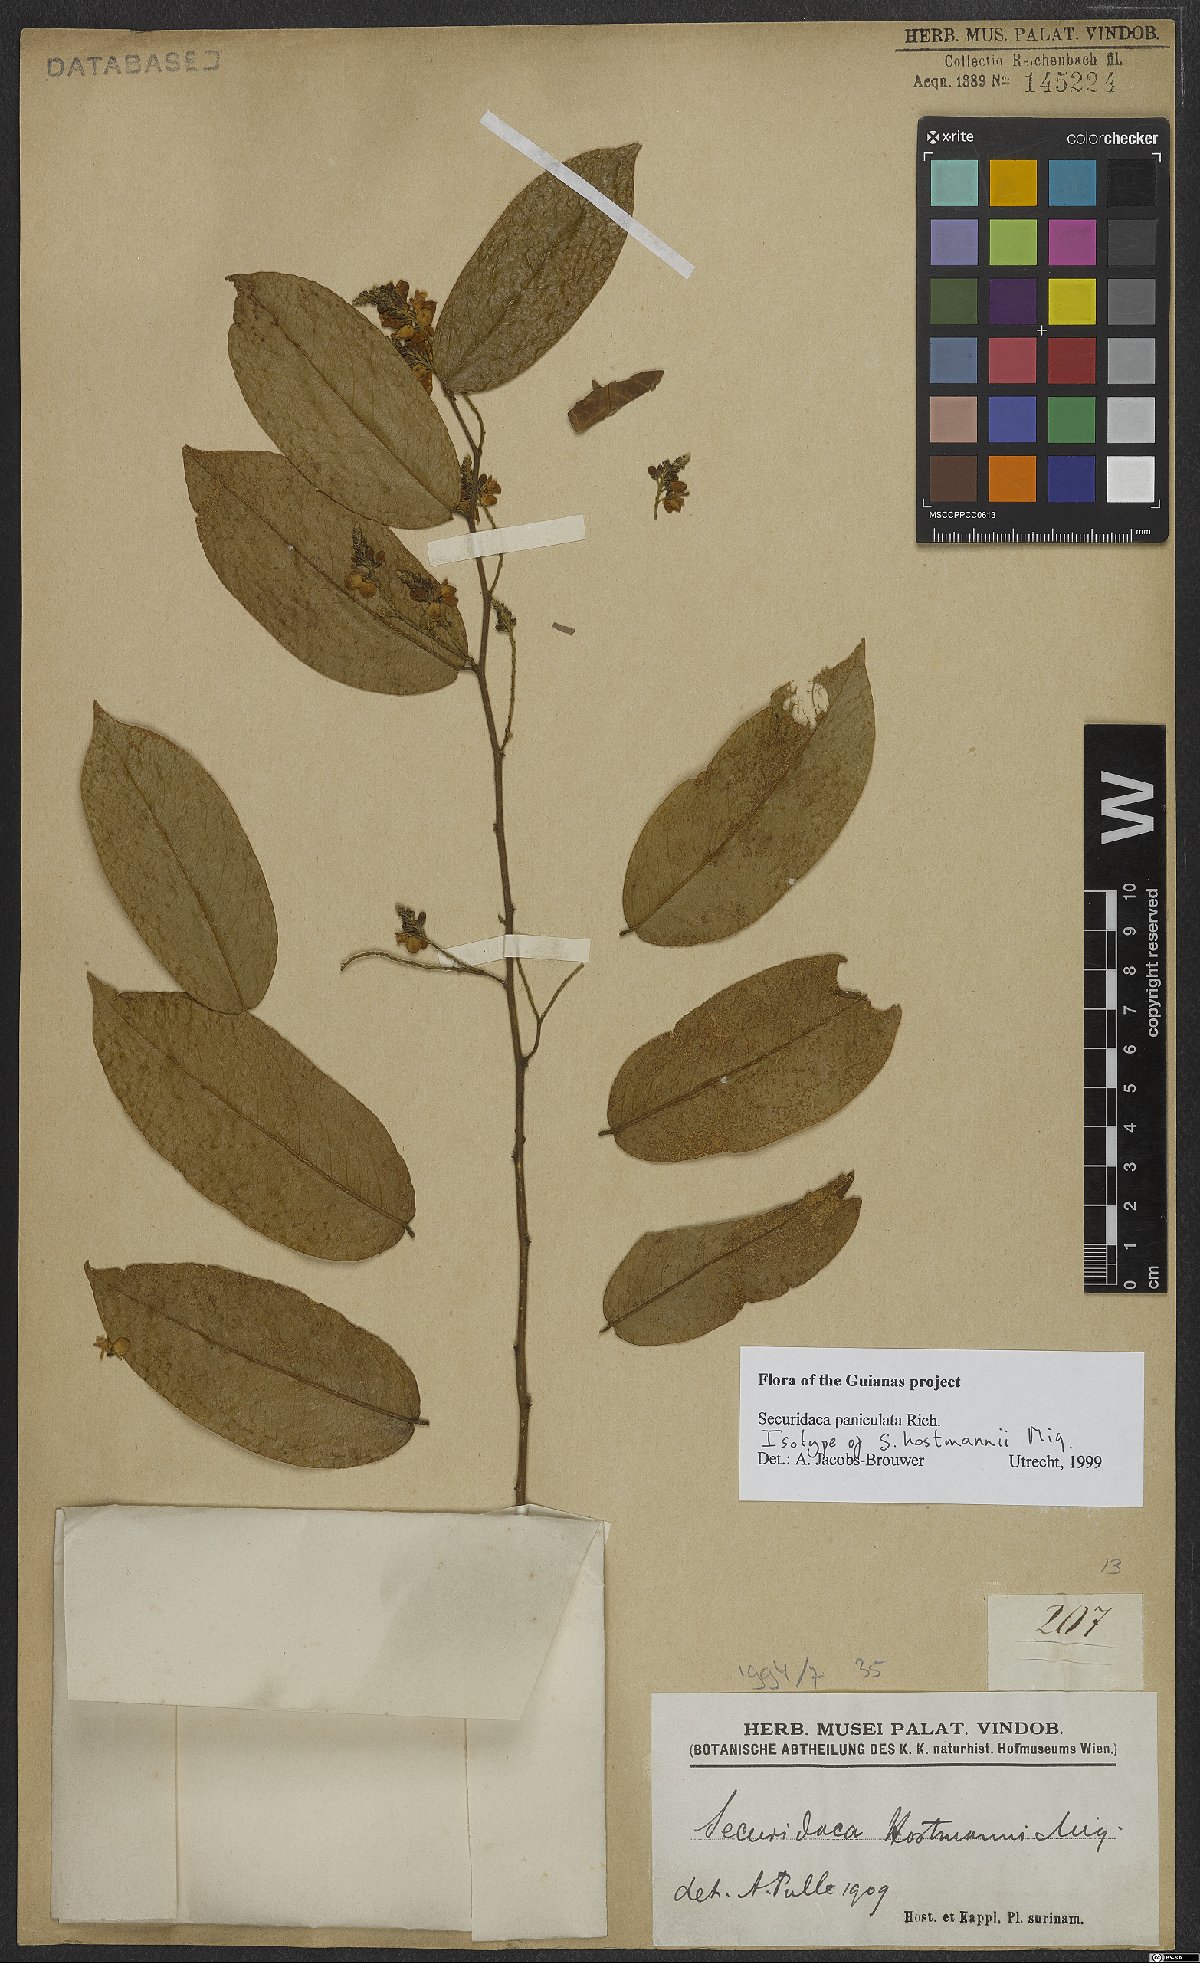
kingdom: Plantae
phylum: Tracheophyta
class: Magnoliopsida
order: Fabales
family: Polygalaceae
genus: Securidaca
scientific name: Securidaca paniculata
